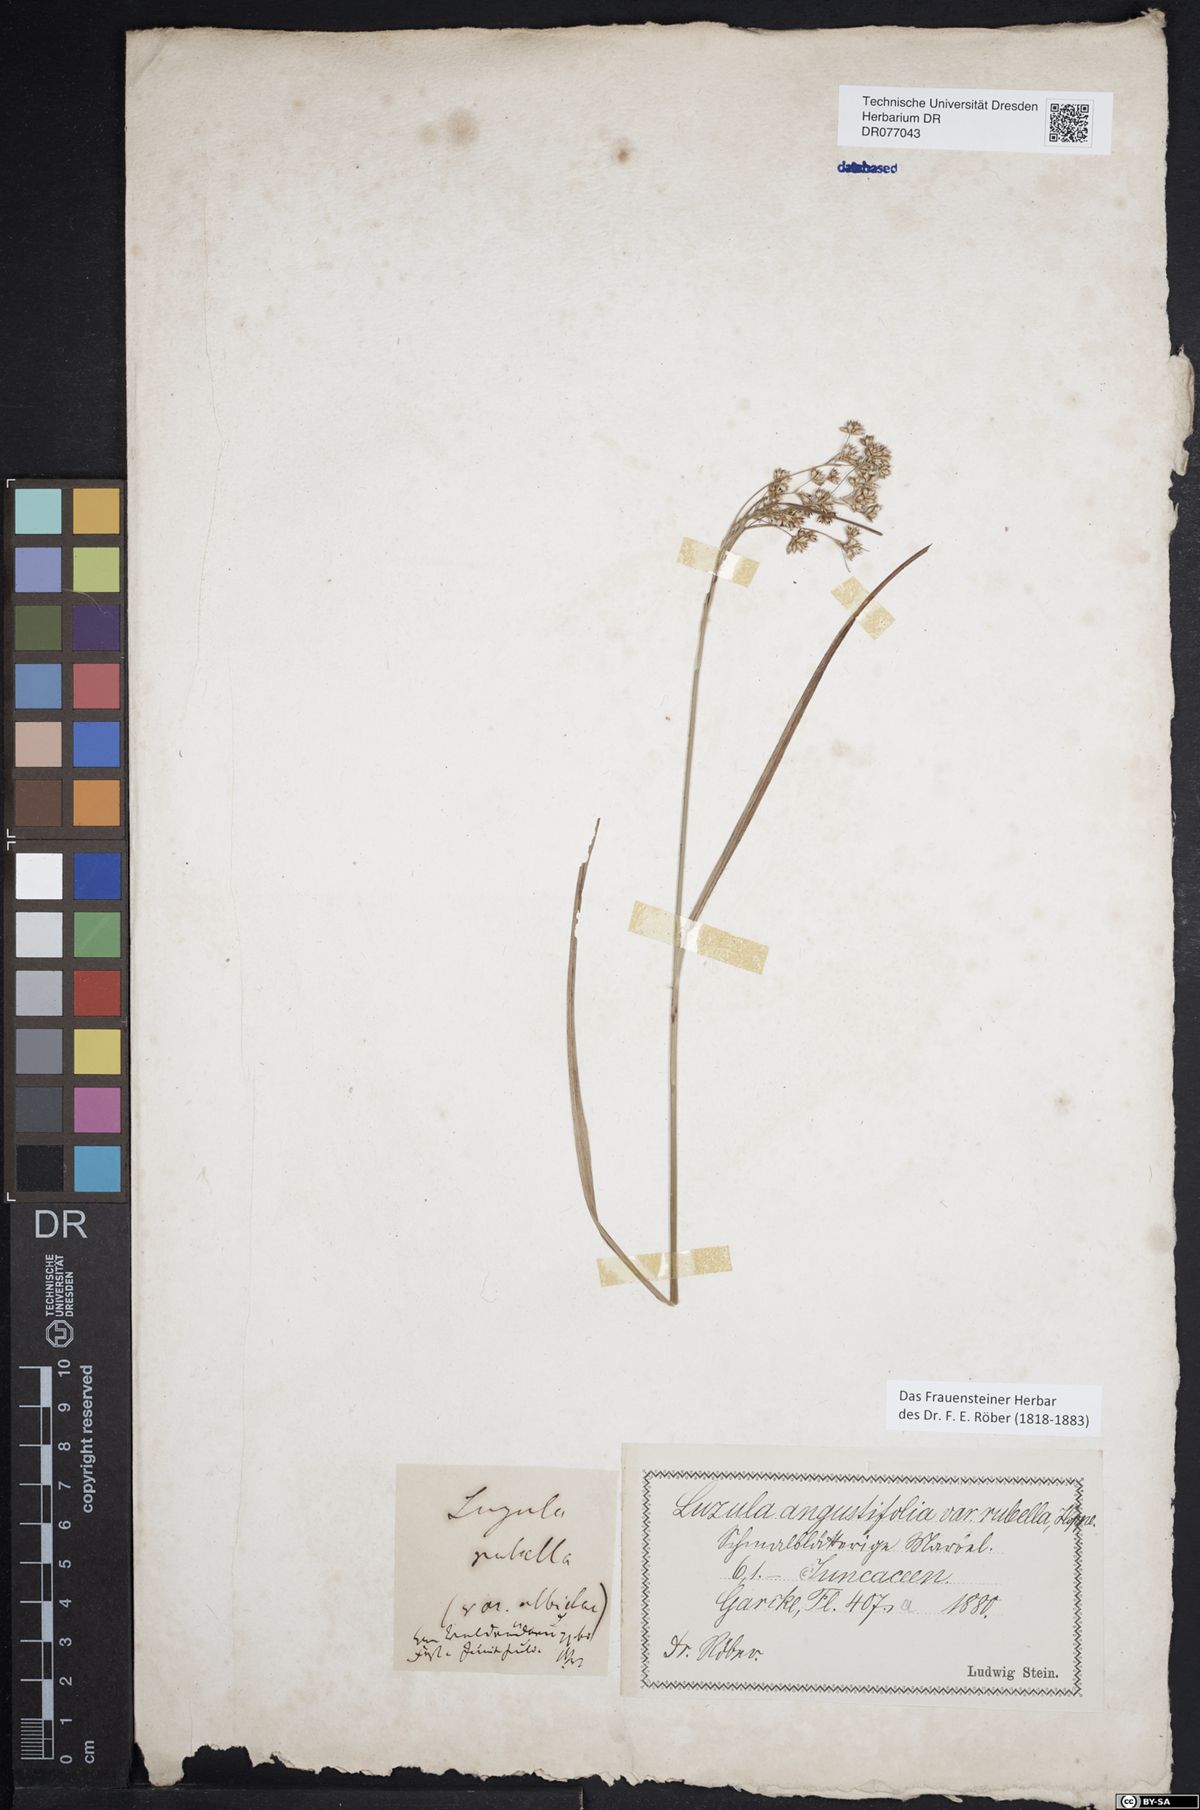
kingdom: Plantae
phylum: Tracheophyta
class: Liliopsida
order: Poales
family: Juncaceae
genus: Luzula
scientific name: Luzula luzuloides
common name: White wood-rush
